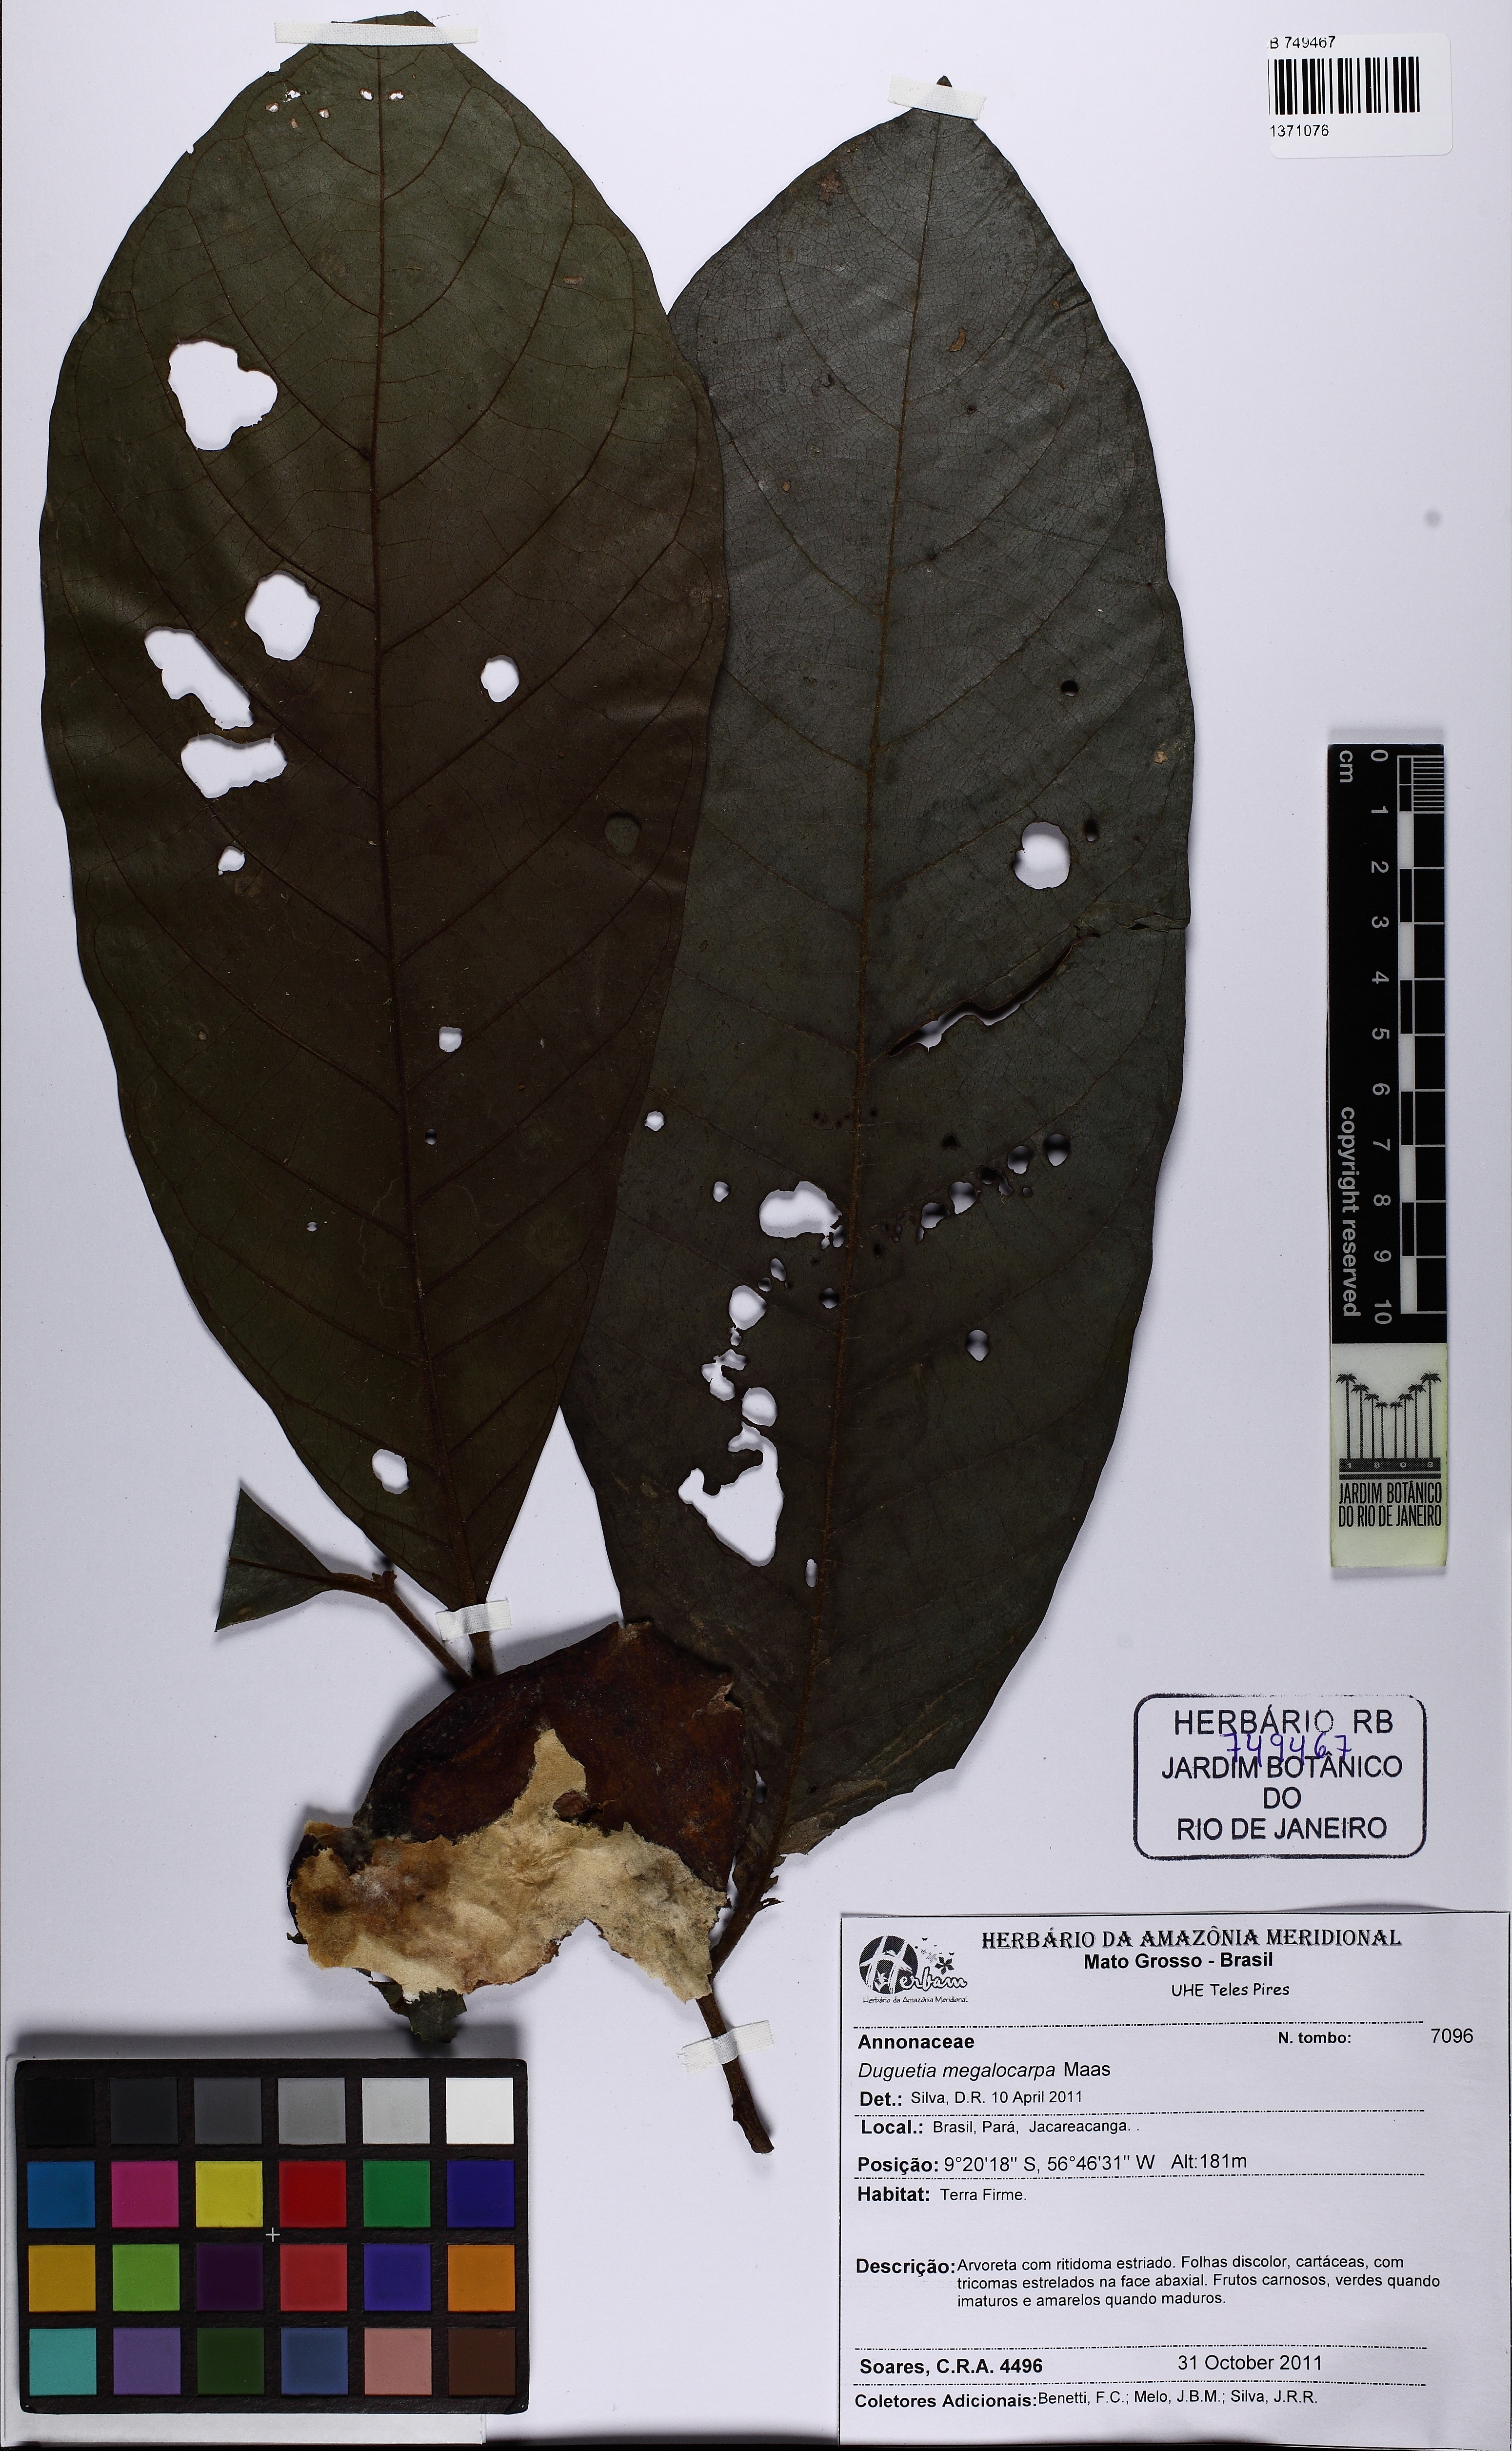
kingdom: Plantae
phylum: Tracheophyta
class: Magnoliopsida
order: Magnoliales
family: Annonaceae
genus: Duguetia
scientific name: Duguetia megalocarpa
